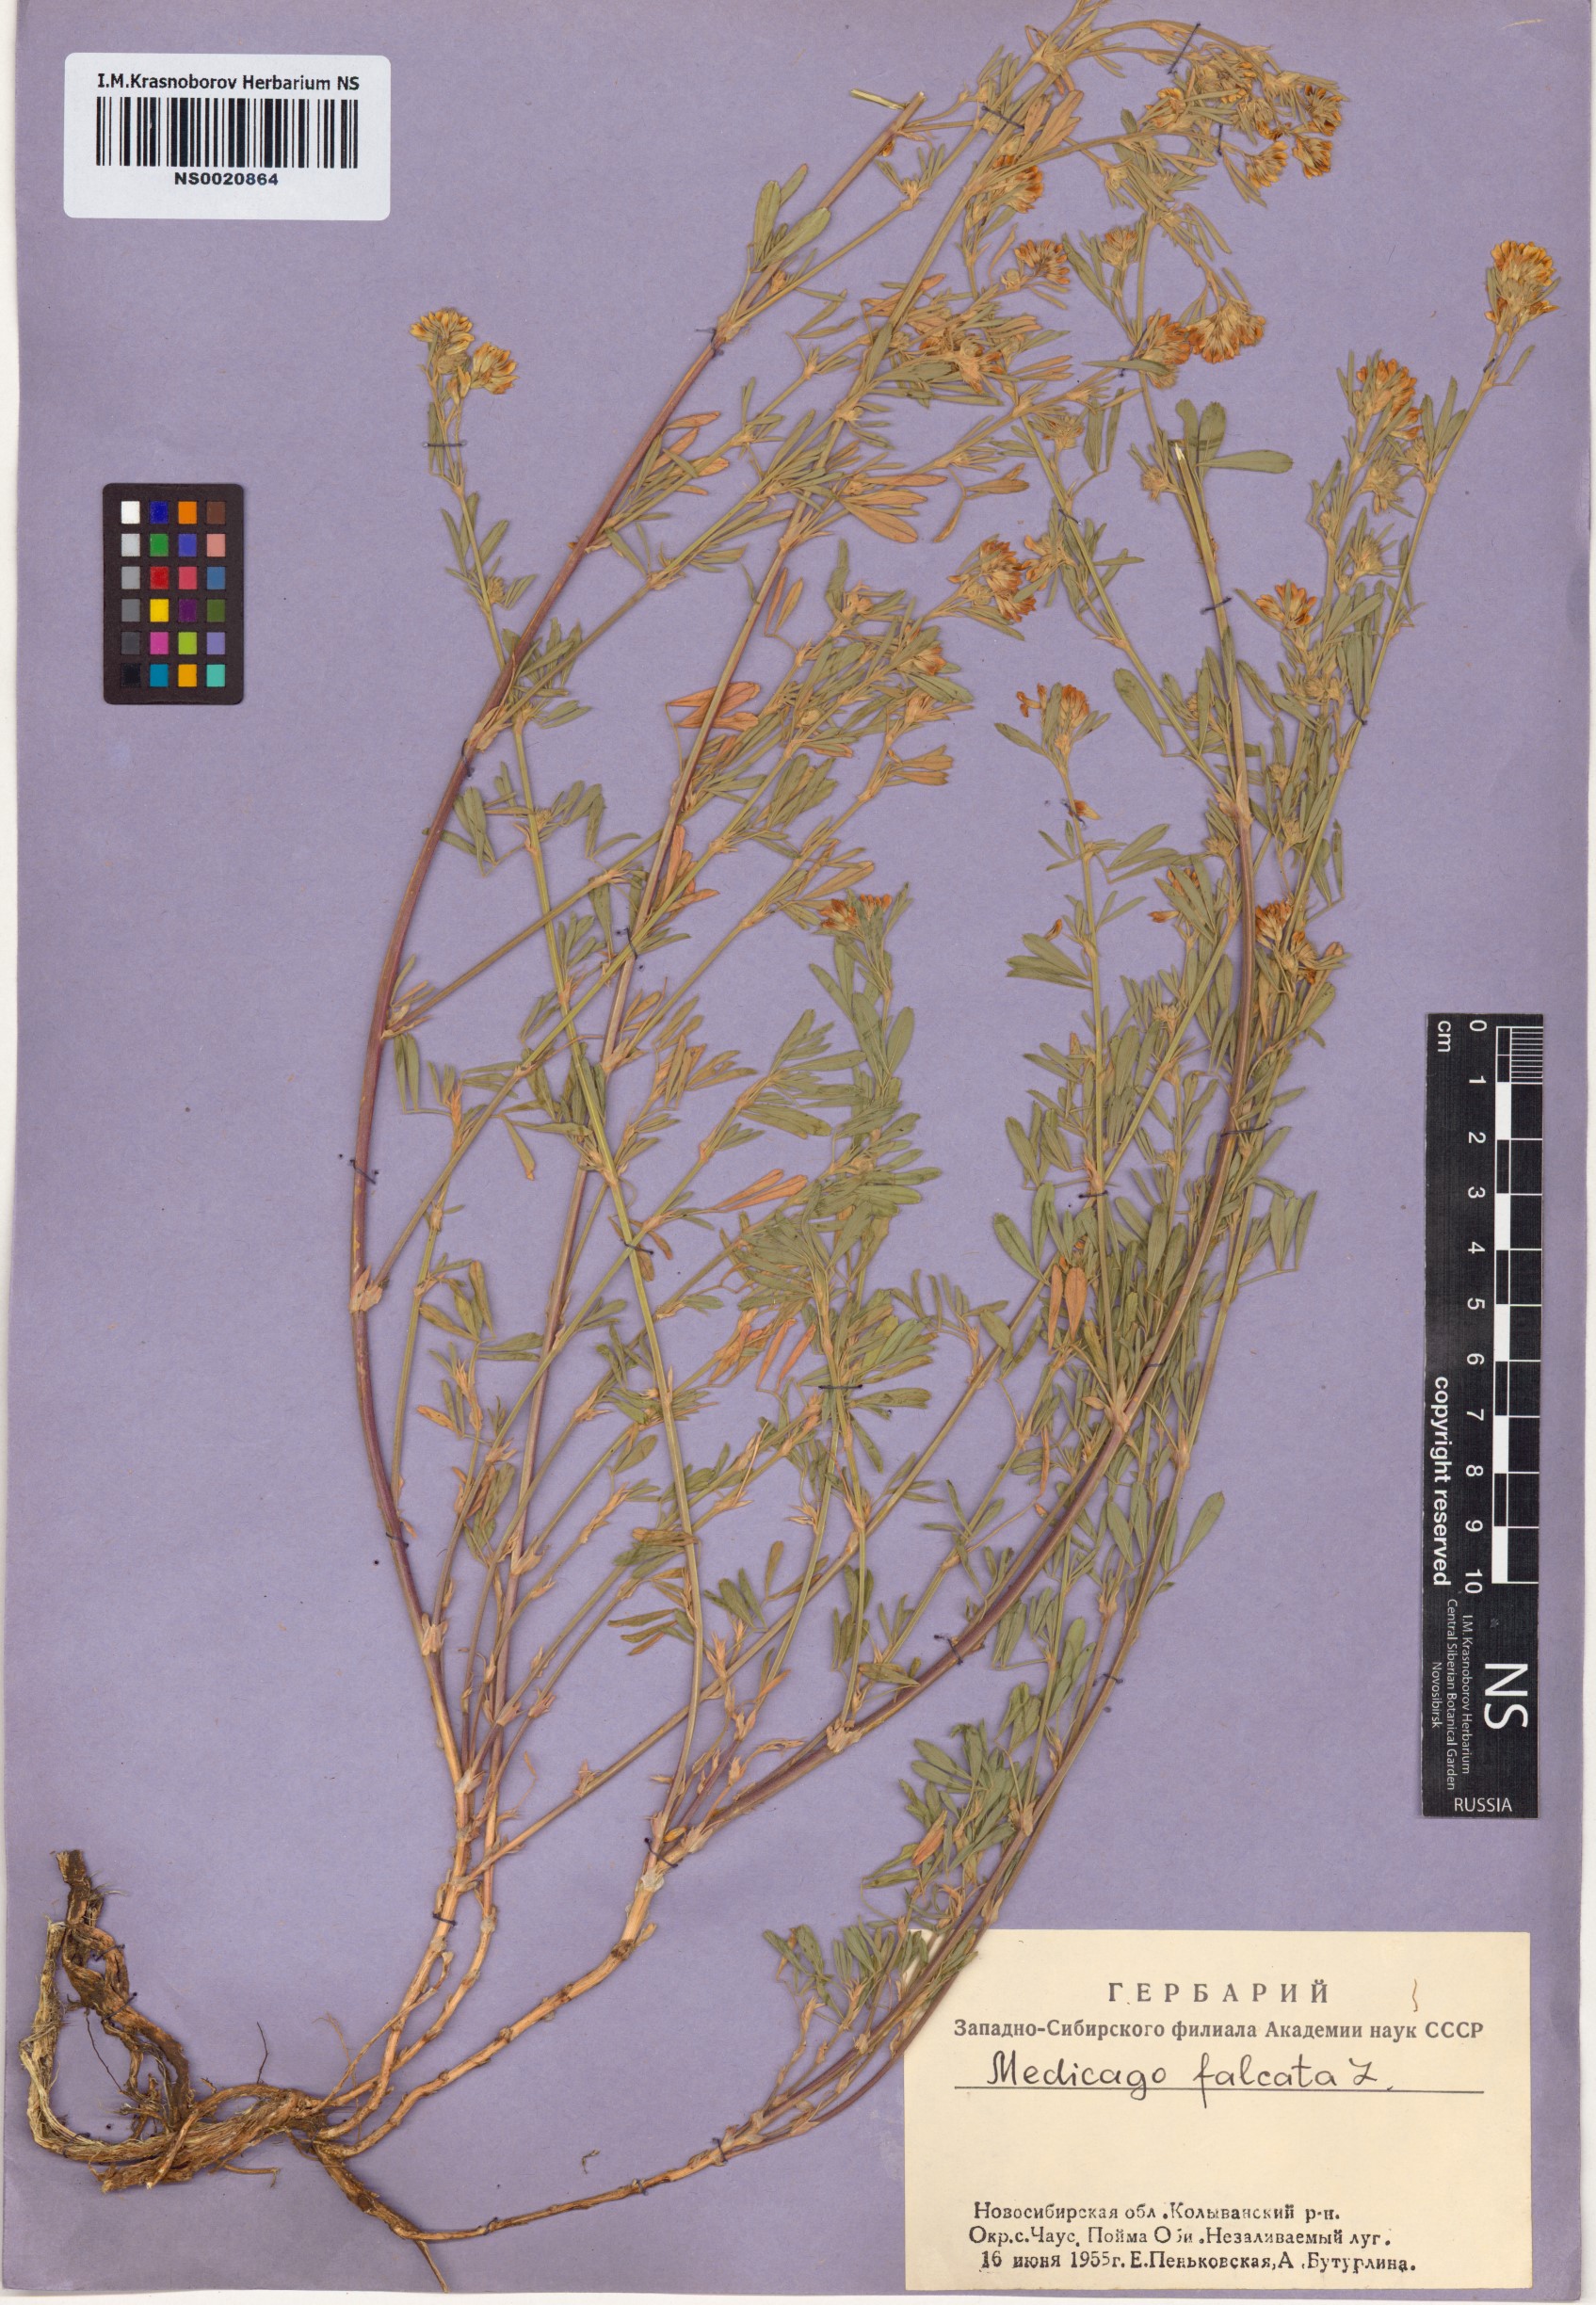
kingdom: Plantae
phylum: Tracheophyta
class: Magnoliopsida
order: Fabales
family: Fabaceae
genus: Medicago
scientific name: Medicago falcata
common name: Sickle medick
